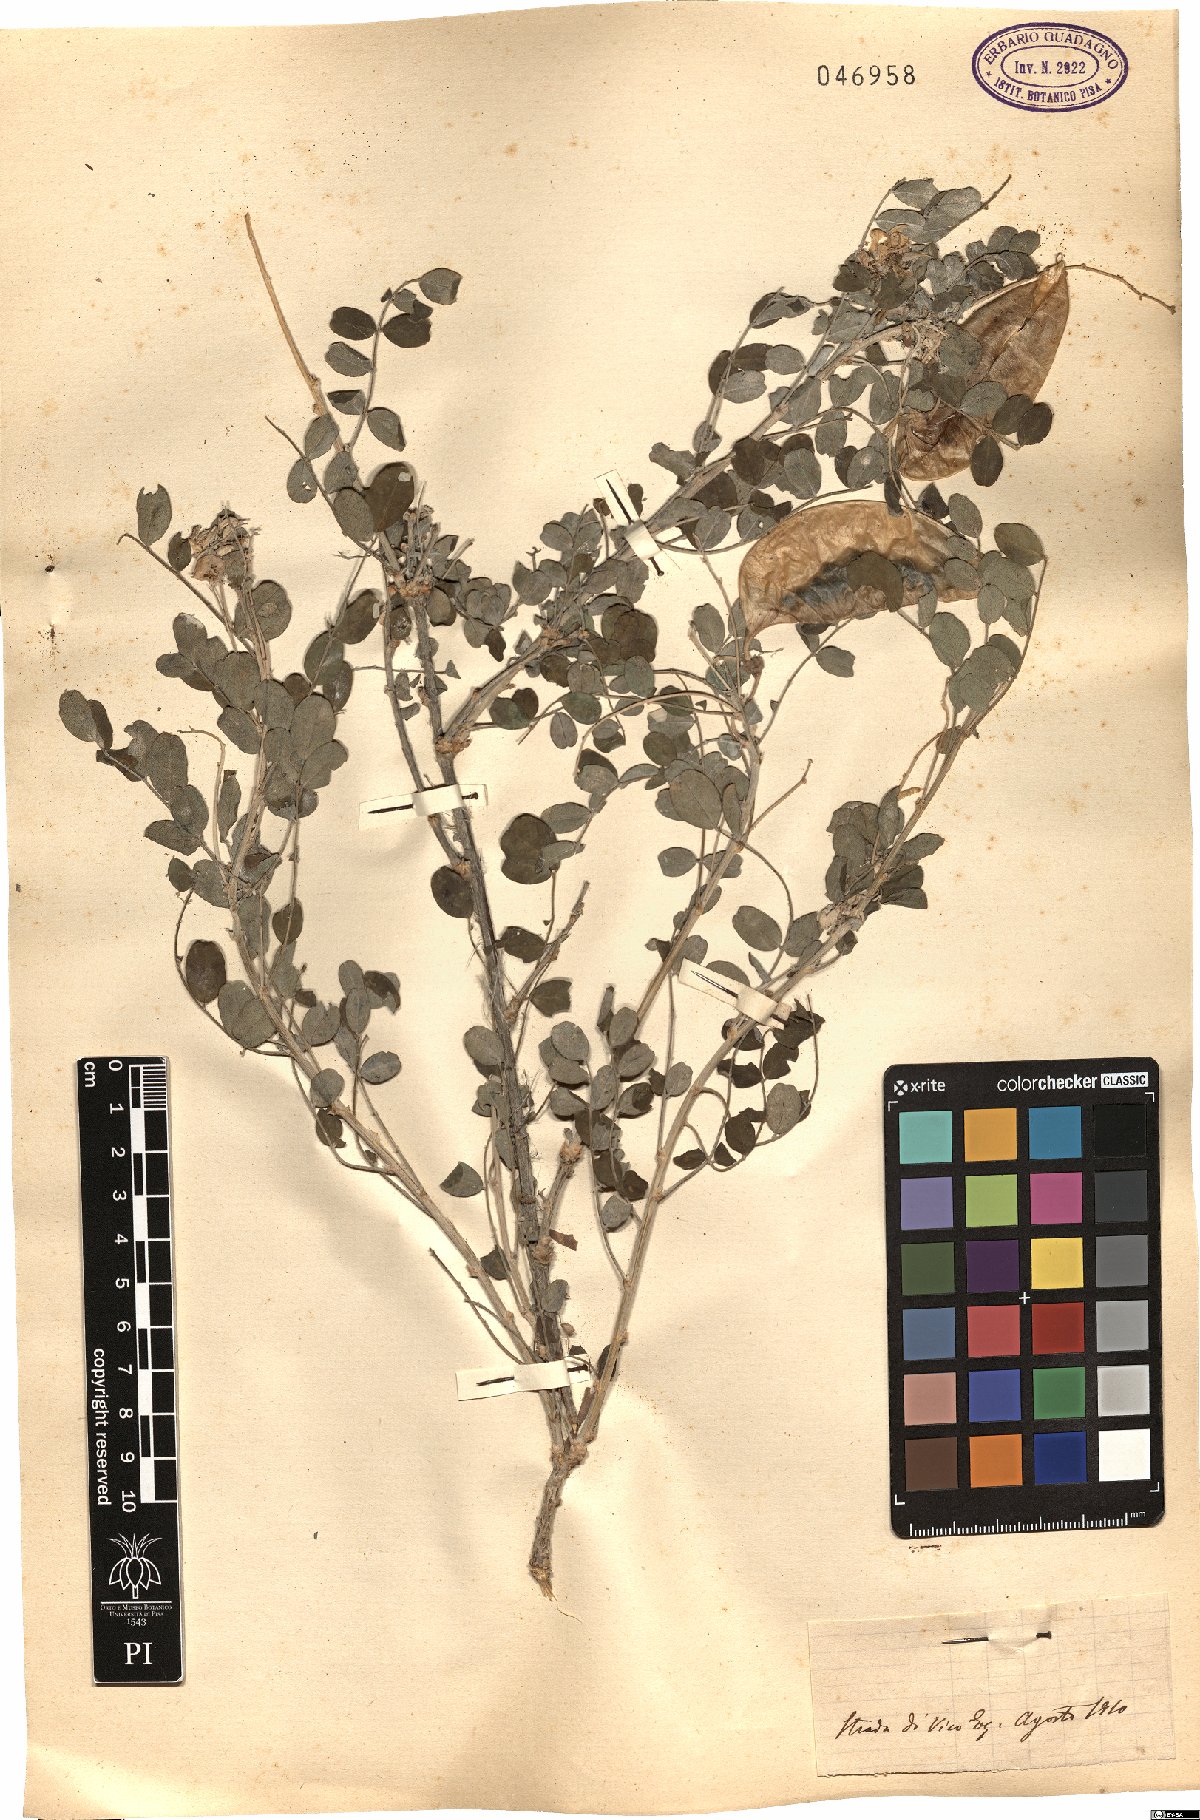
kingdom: Plantae
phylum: Tracheophyta
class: Magnoliopsida
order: Fabales
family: Fabaceae
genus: Colutea
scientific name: Colutea
